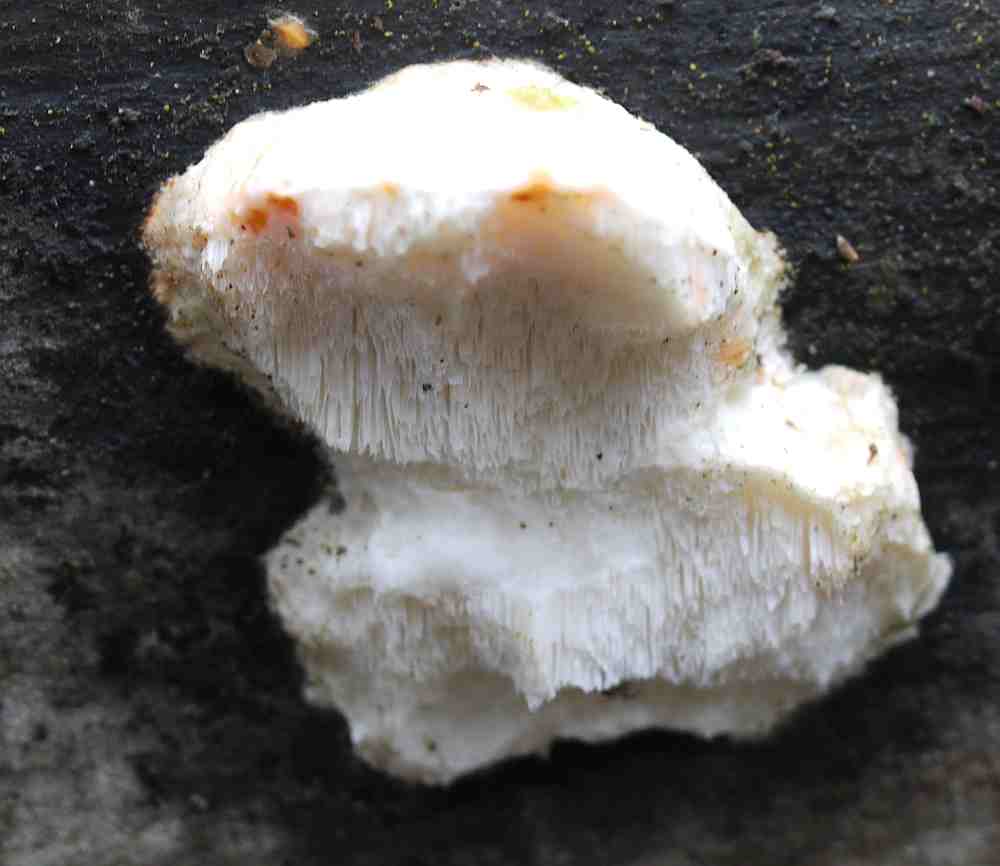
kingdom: Fungi
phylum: Basidiomycota
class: Agaricomycetes
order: Polyporales
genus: Amaropostia
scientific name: Amaropostia stiptica
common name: bitter kødporesvamp
